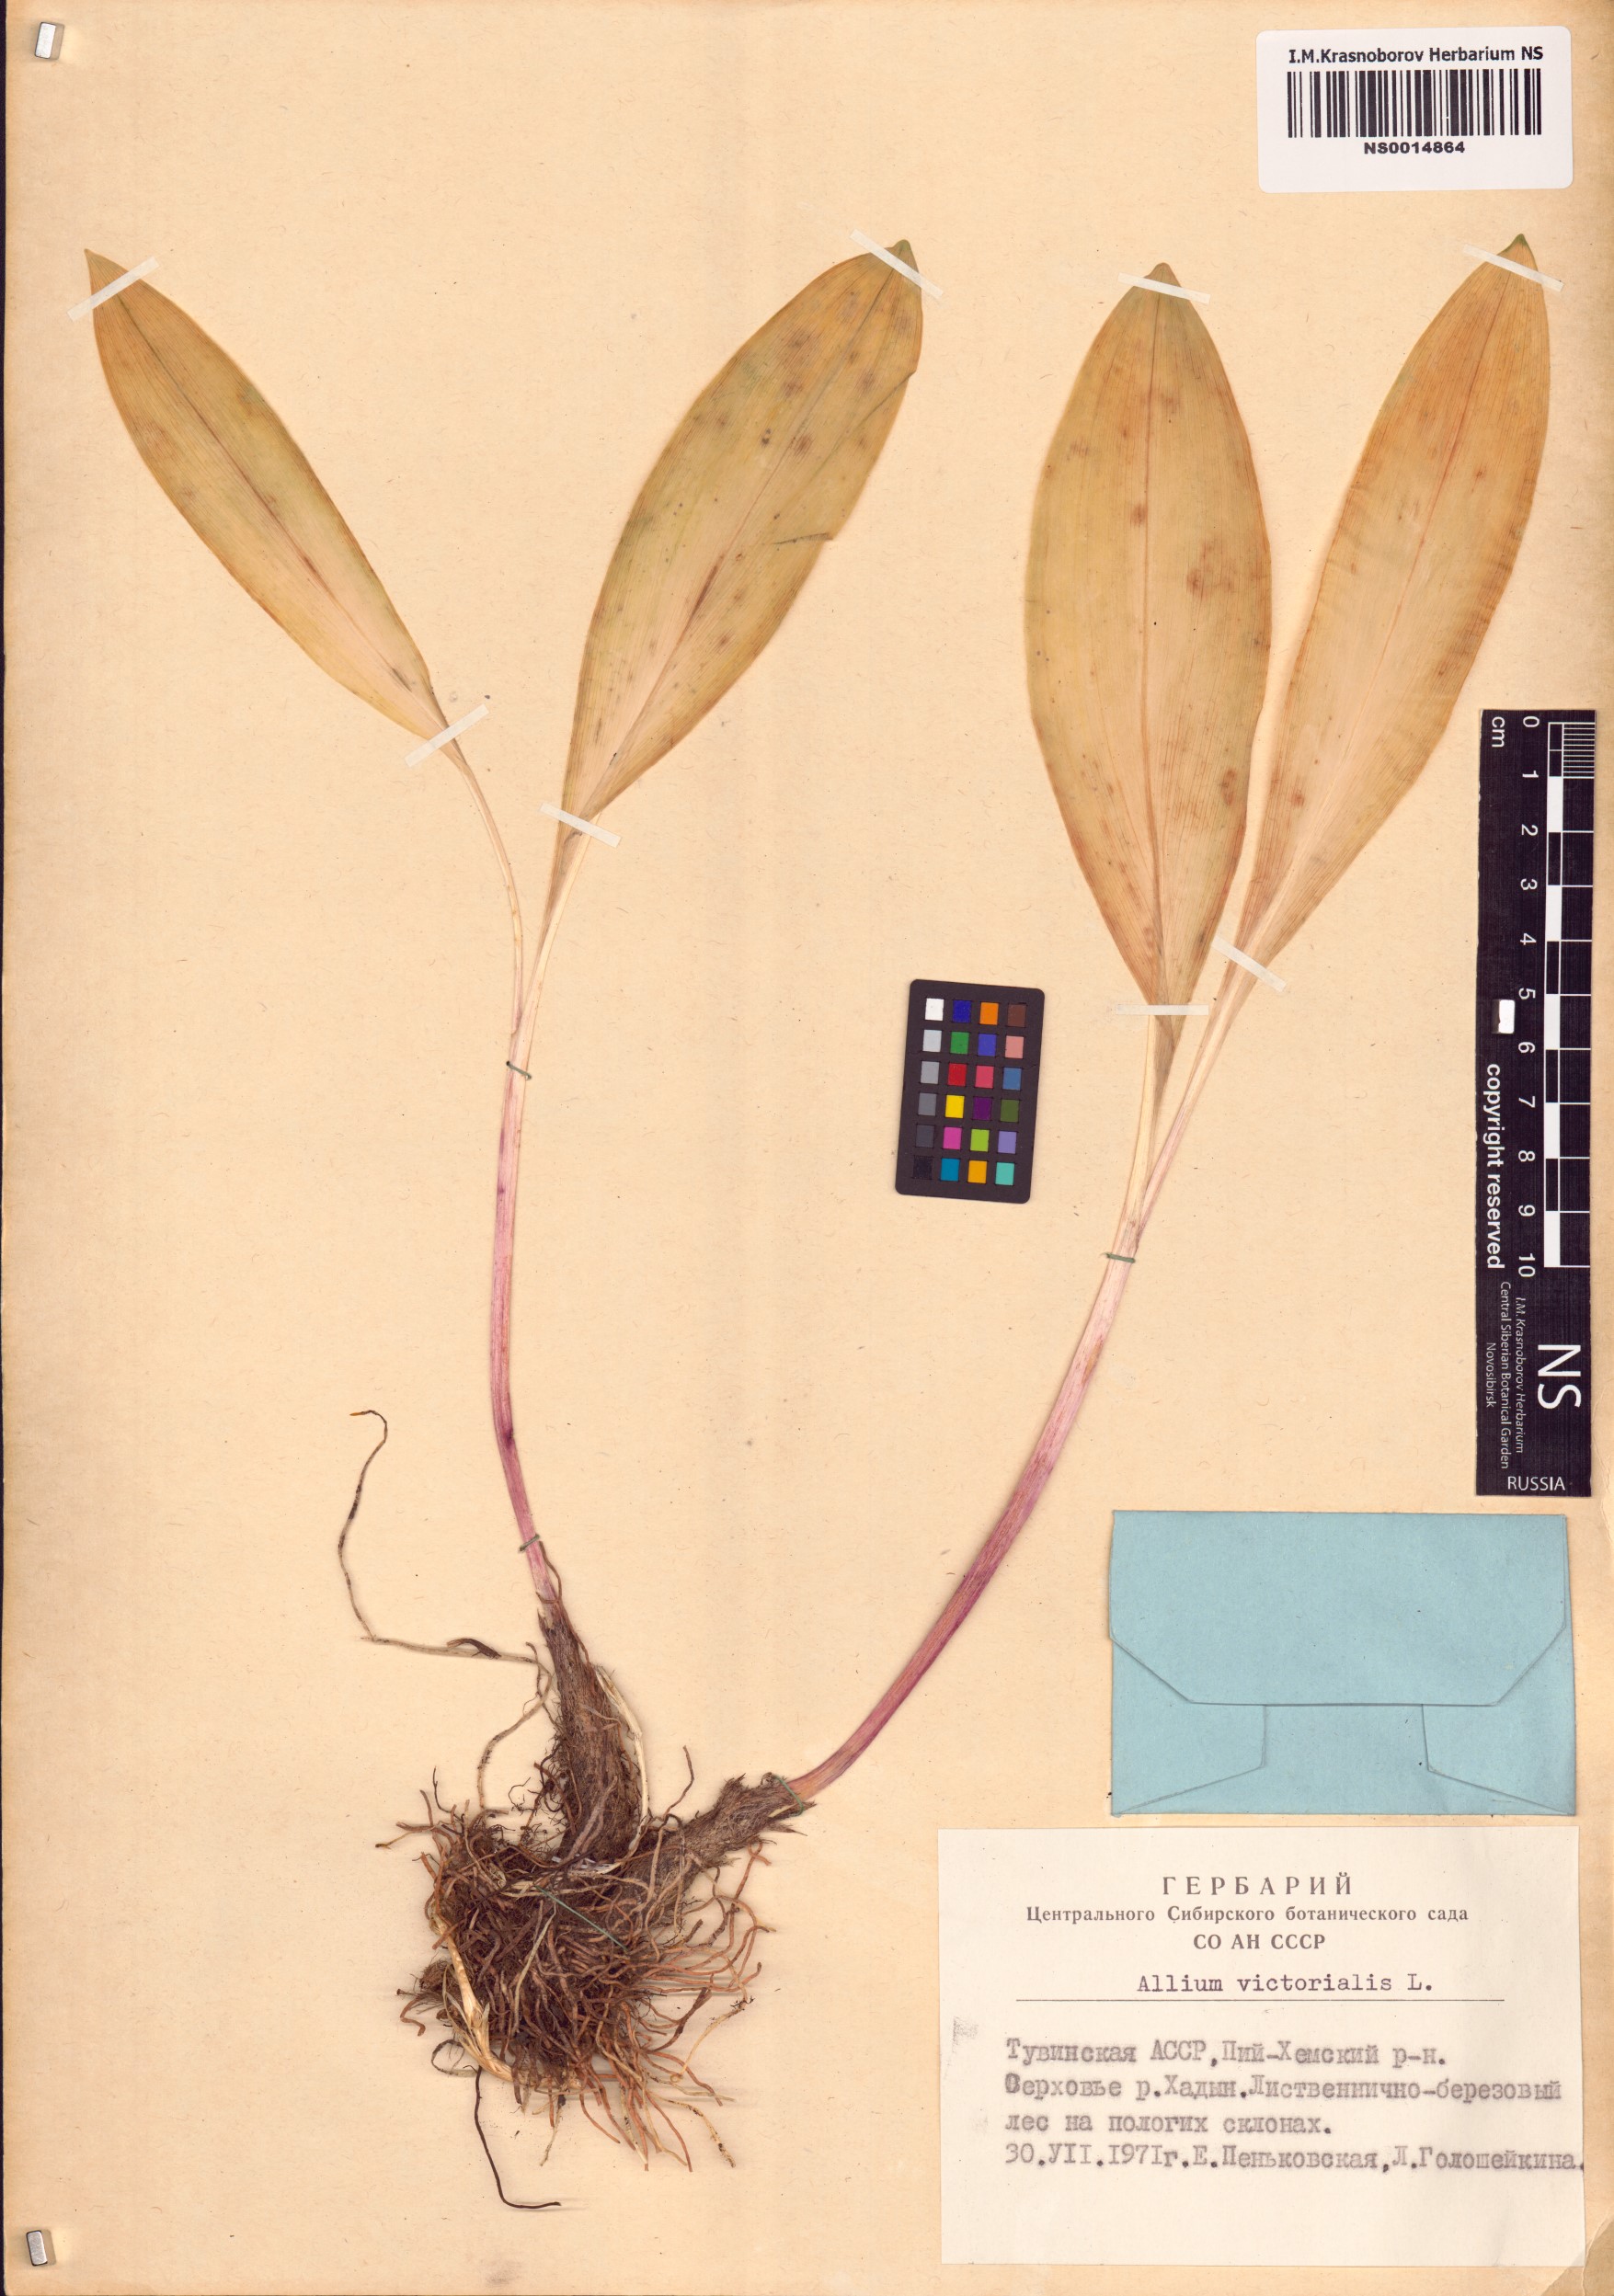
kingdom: Plantae
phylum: Tracheophyta
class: Liliopsida
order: Asparagales
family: Amaryllidaceae
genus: Allium
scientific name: Allium victorialis
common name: Alpine leek
